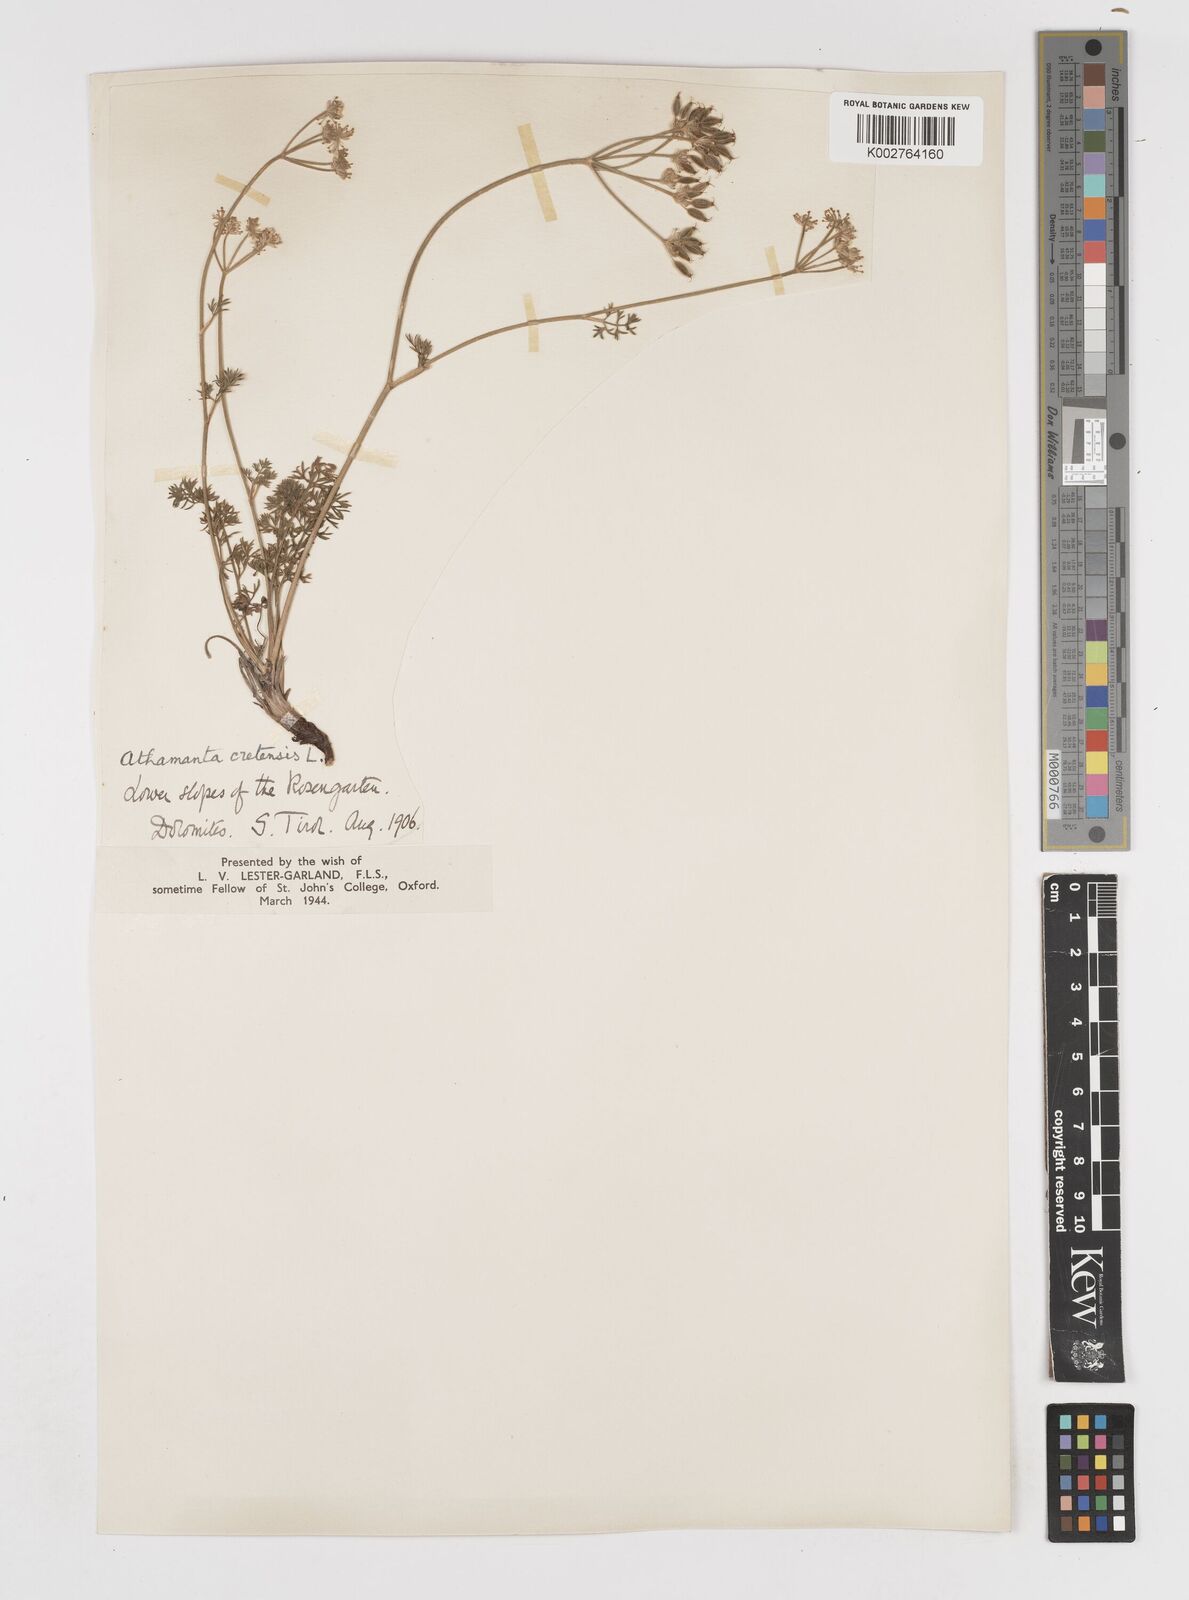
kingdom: Plantae
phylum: Tracheophyta
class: Magnoliopsida
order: Apiales
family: Apiaceae
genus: Athamanta
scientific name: Athamanta cretensis
